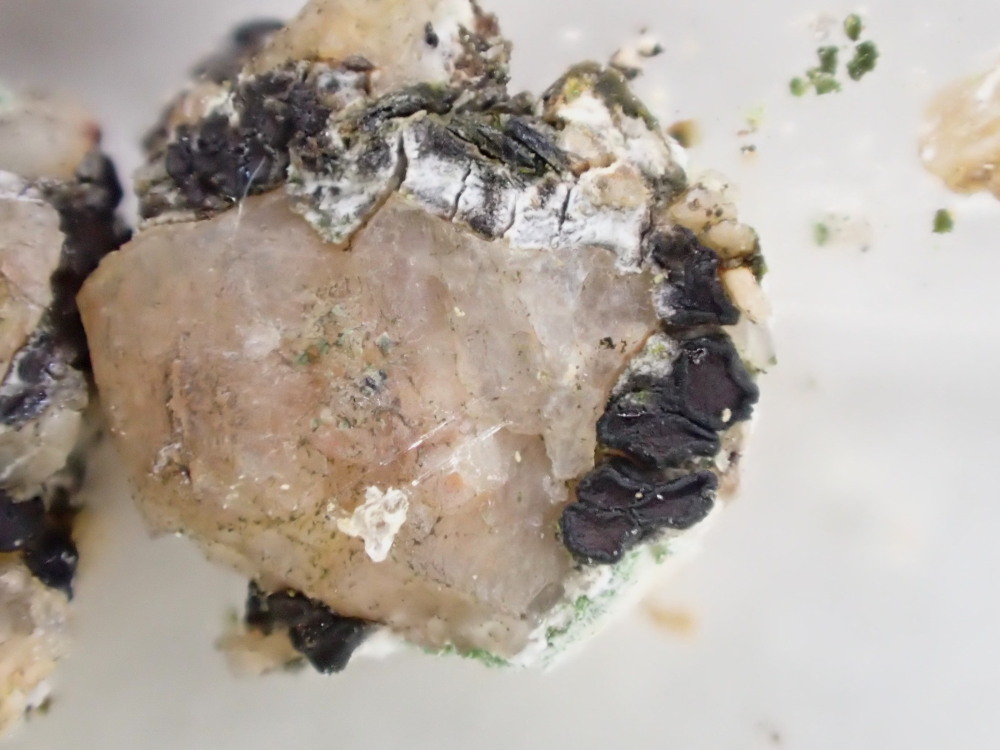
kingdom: Fungi
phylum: Ascomycota
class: Lecanoromycetes
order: Acarosporales
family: Acarosporaceae
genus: Sarcogyne
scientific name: Sarcogyne regularis
